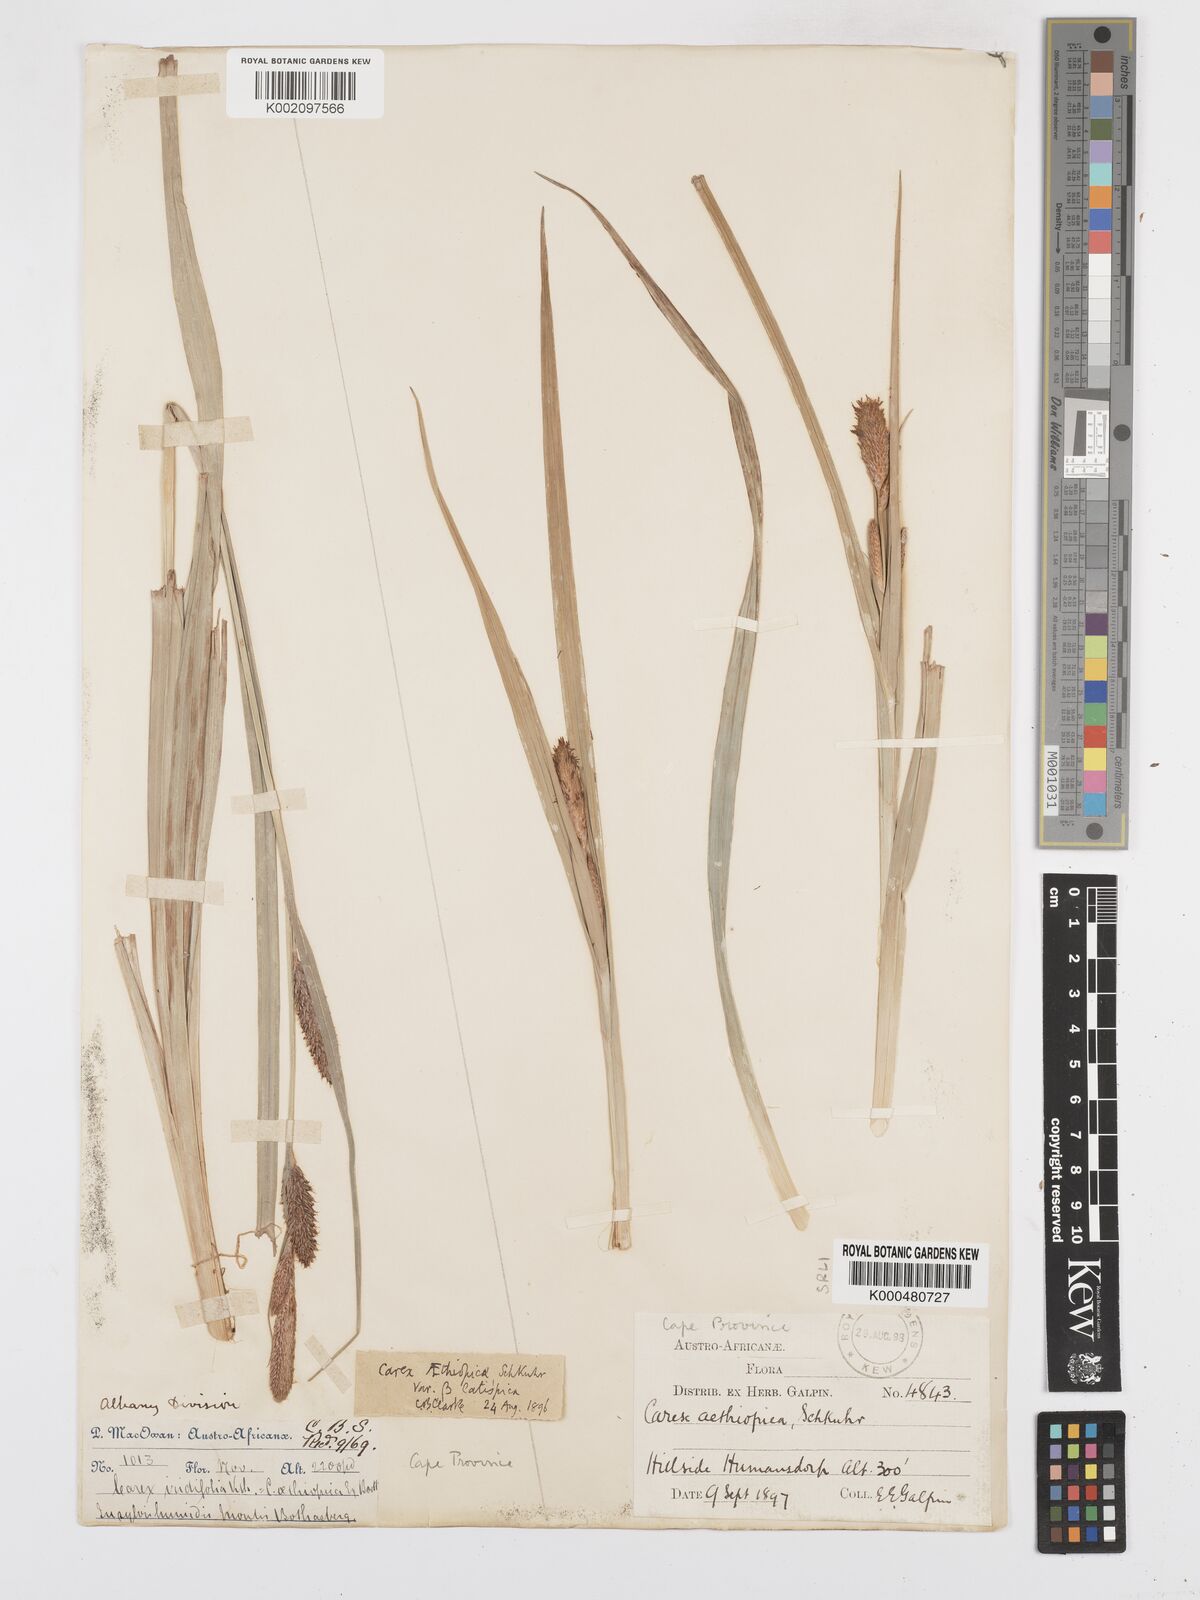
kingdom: Plantae
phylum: Tracheophyta
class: Liliopsida
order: Poales
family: Cyperaceae
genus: Carex
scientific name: Carex aethiopica
